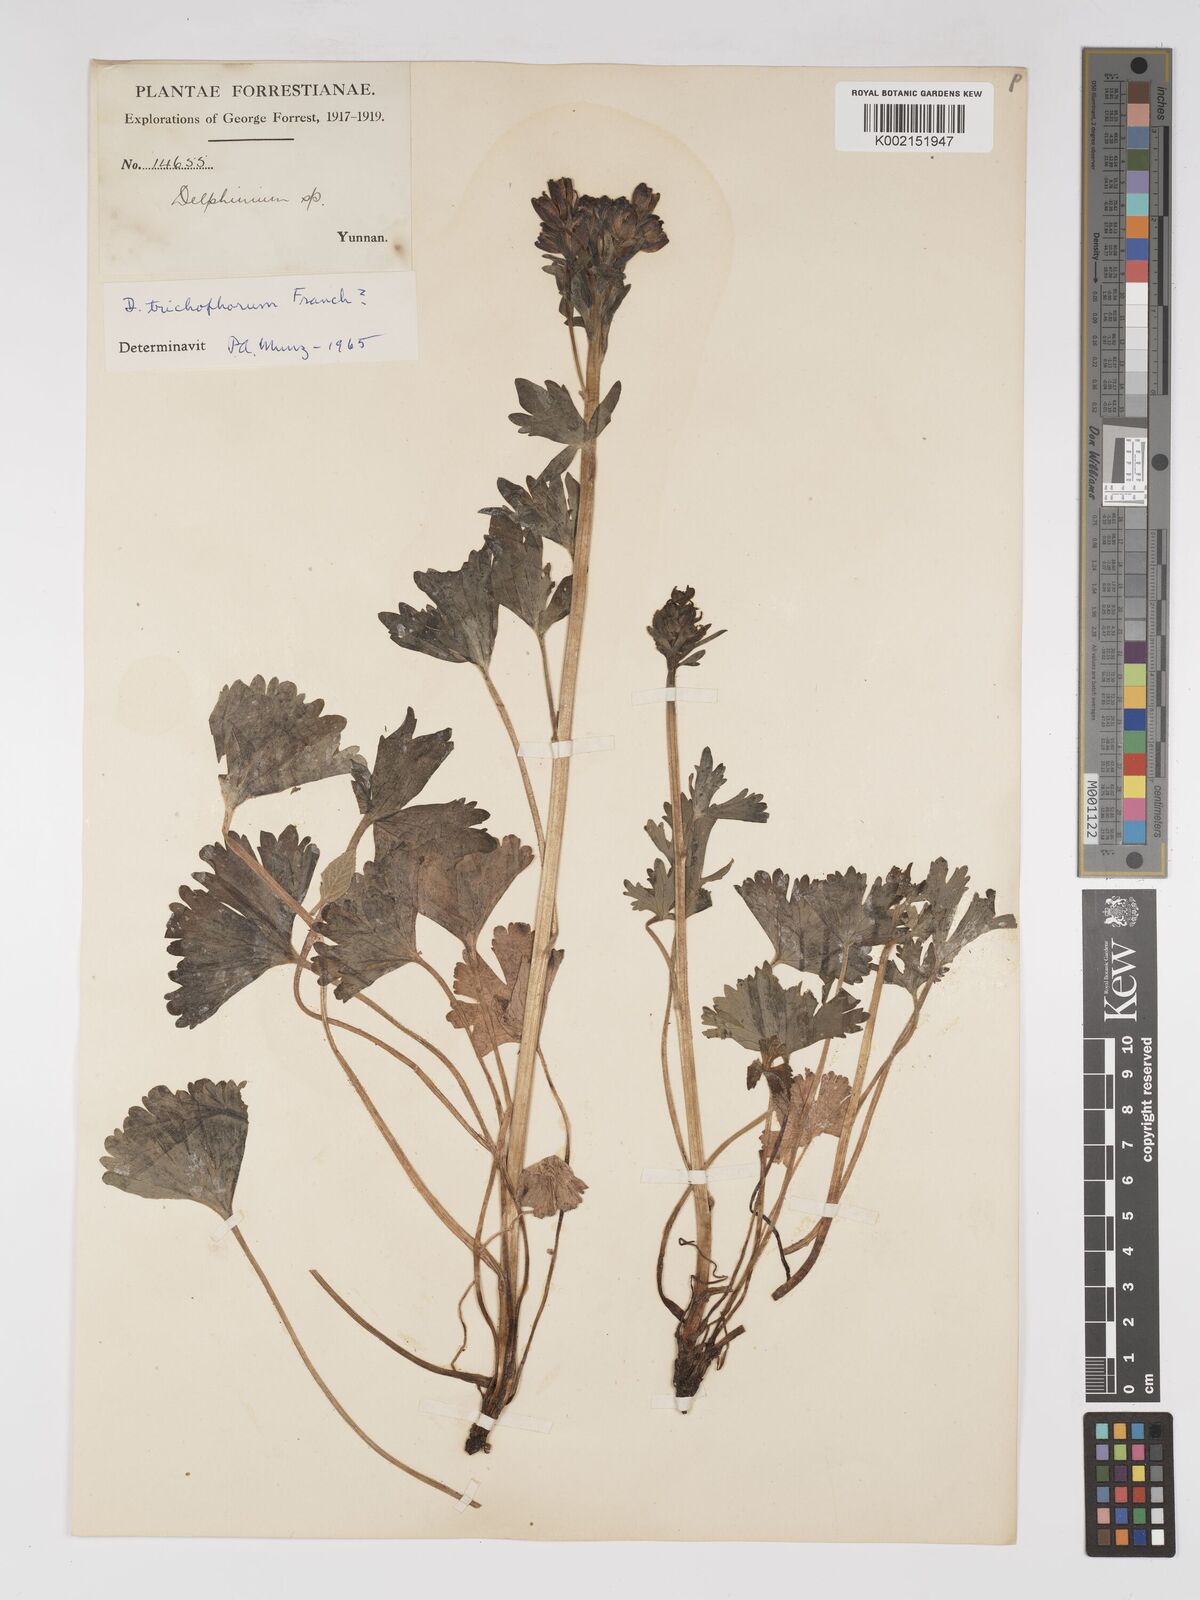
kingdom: Plantae
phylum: Tracheophyta
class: Magnoliopsida
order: Ranunculales
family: Ranunculaceae
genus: Delphinium
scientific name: Delphinium trichophorum
